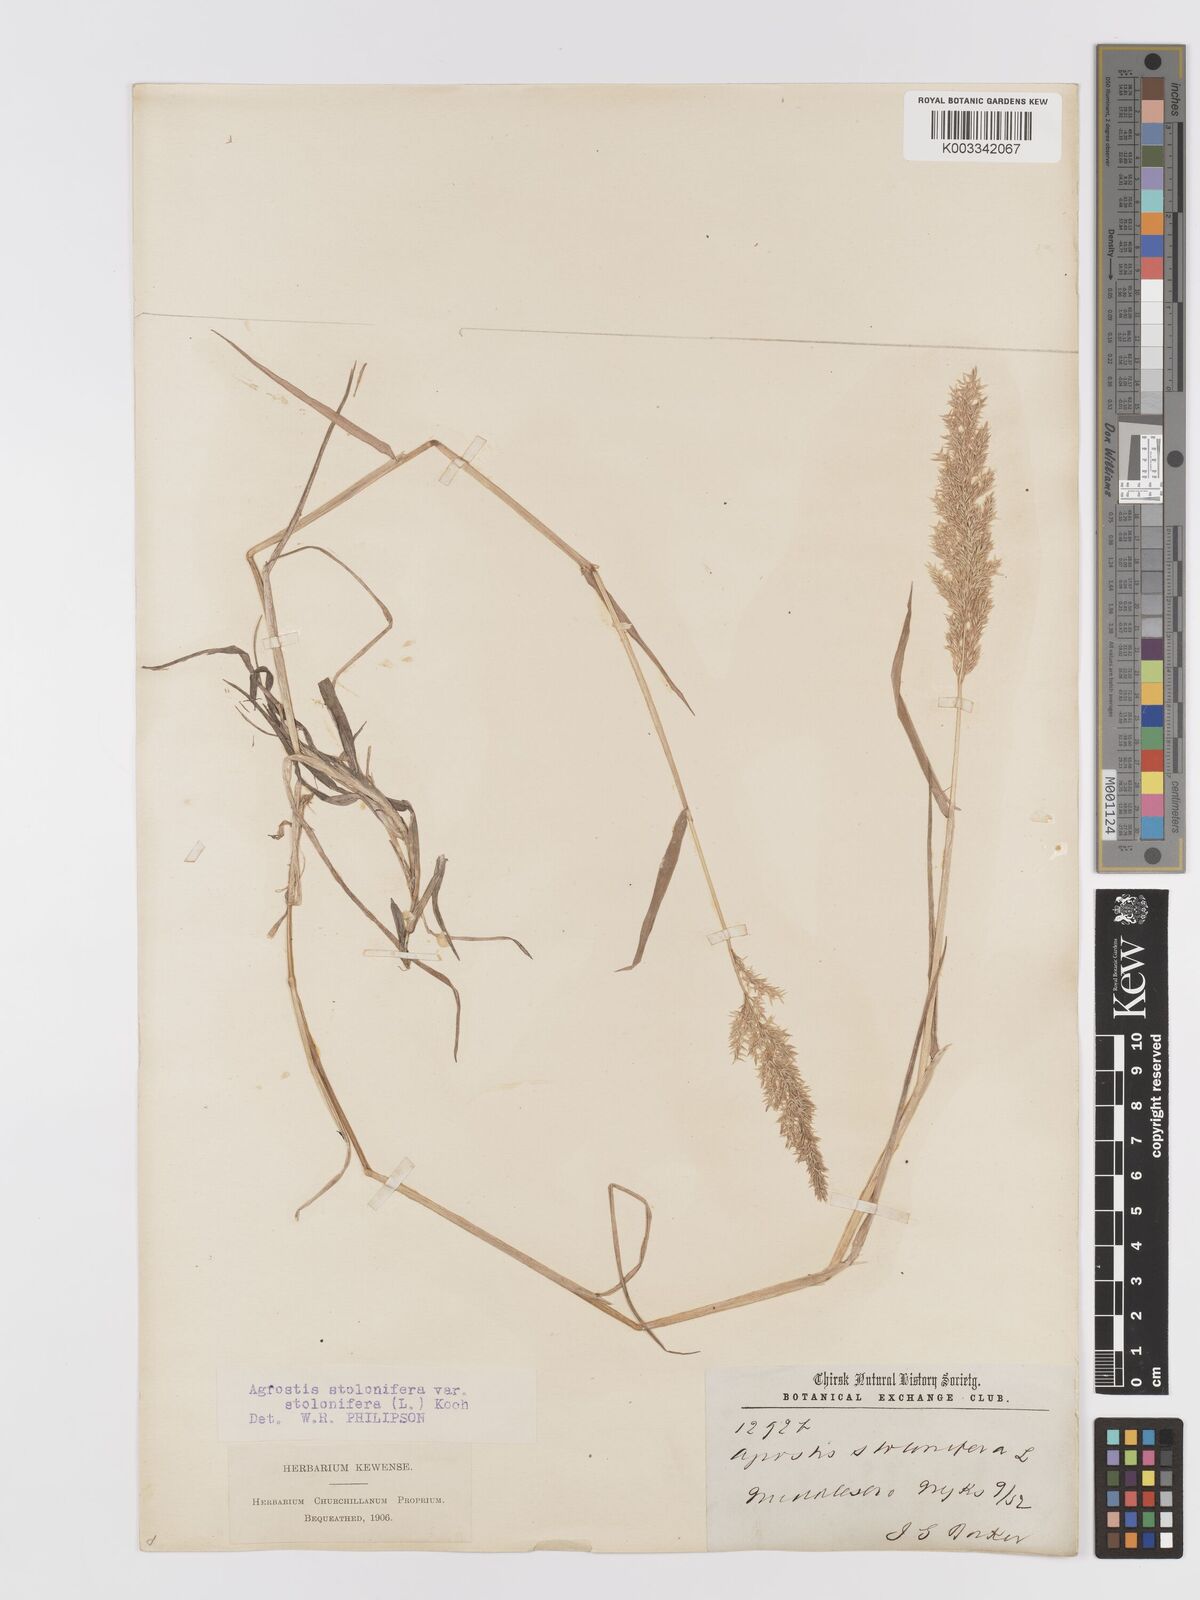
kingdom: Plantae
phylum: Tracheophyta
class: Liliopsida
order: Poales
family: Poaceae
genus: Agrostis
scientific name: Agrostis stolonifera
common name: Creeping bentgrass
